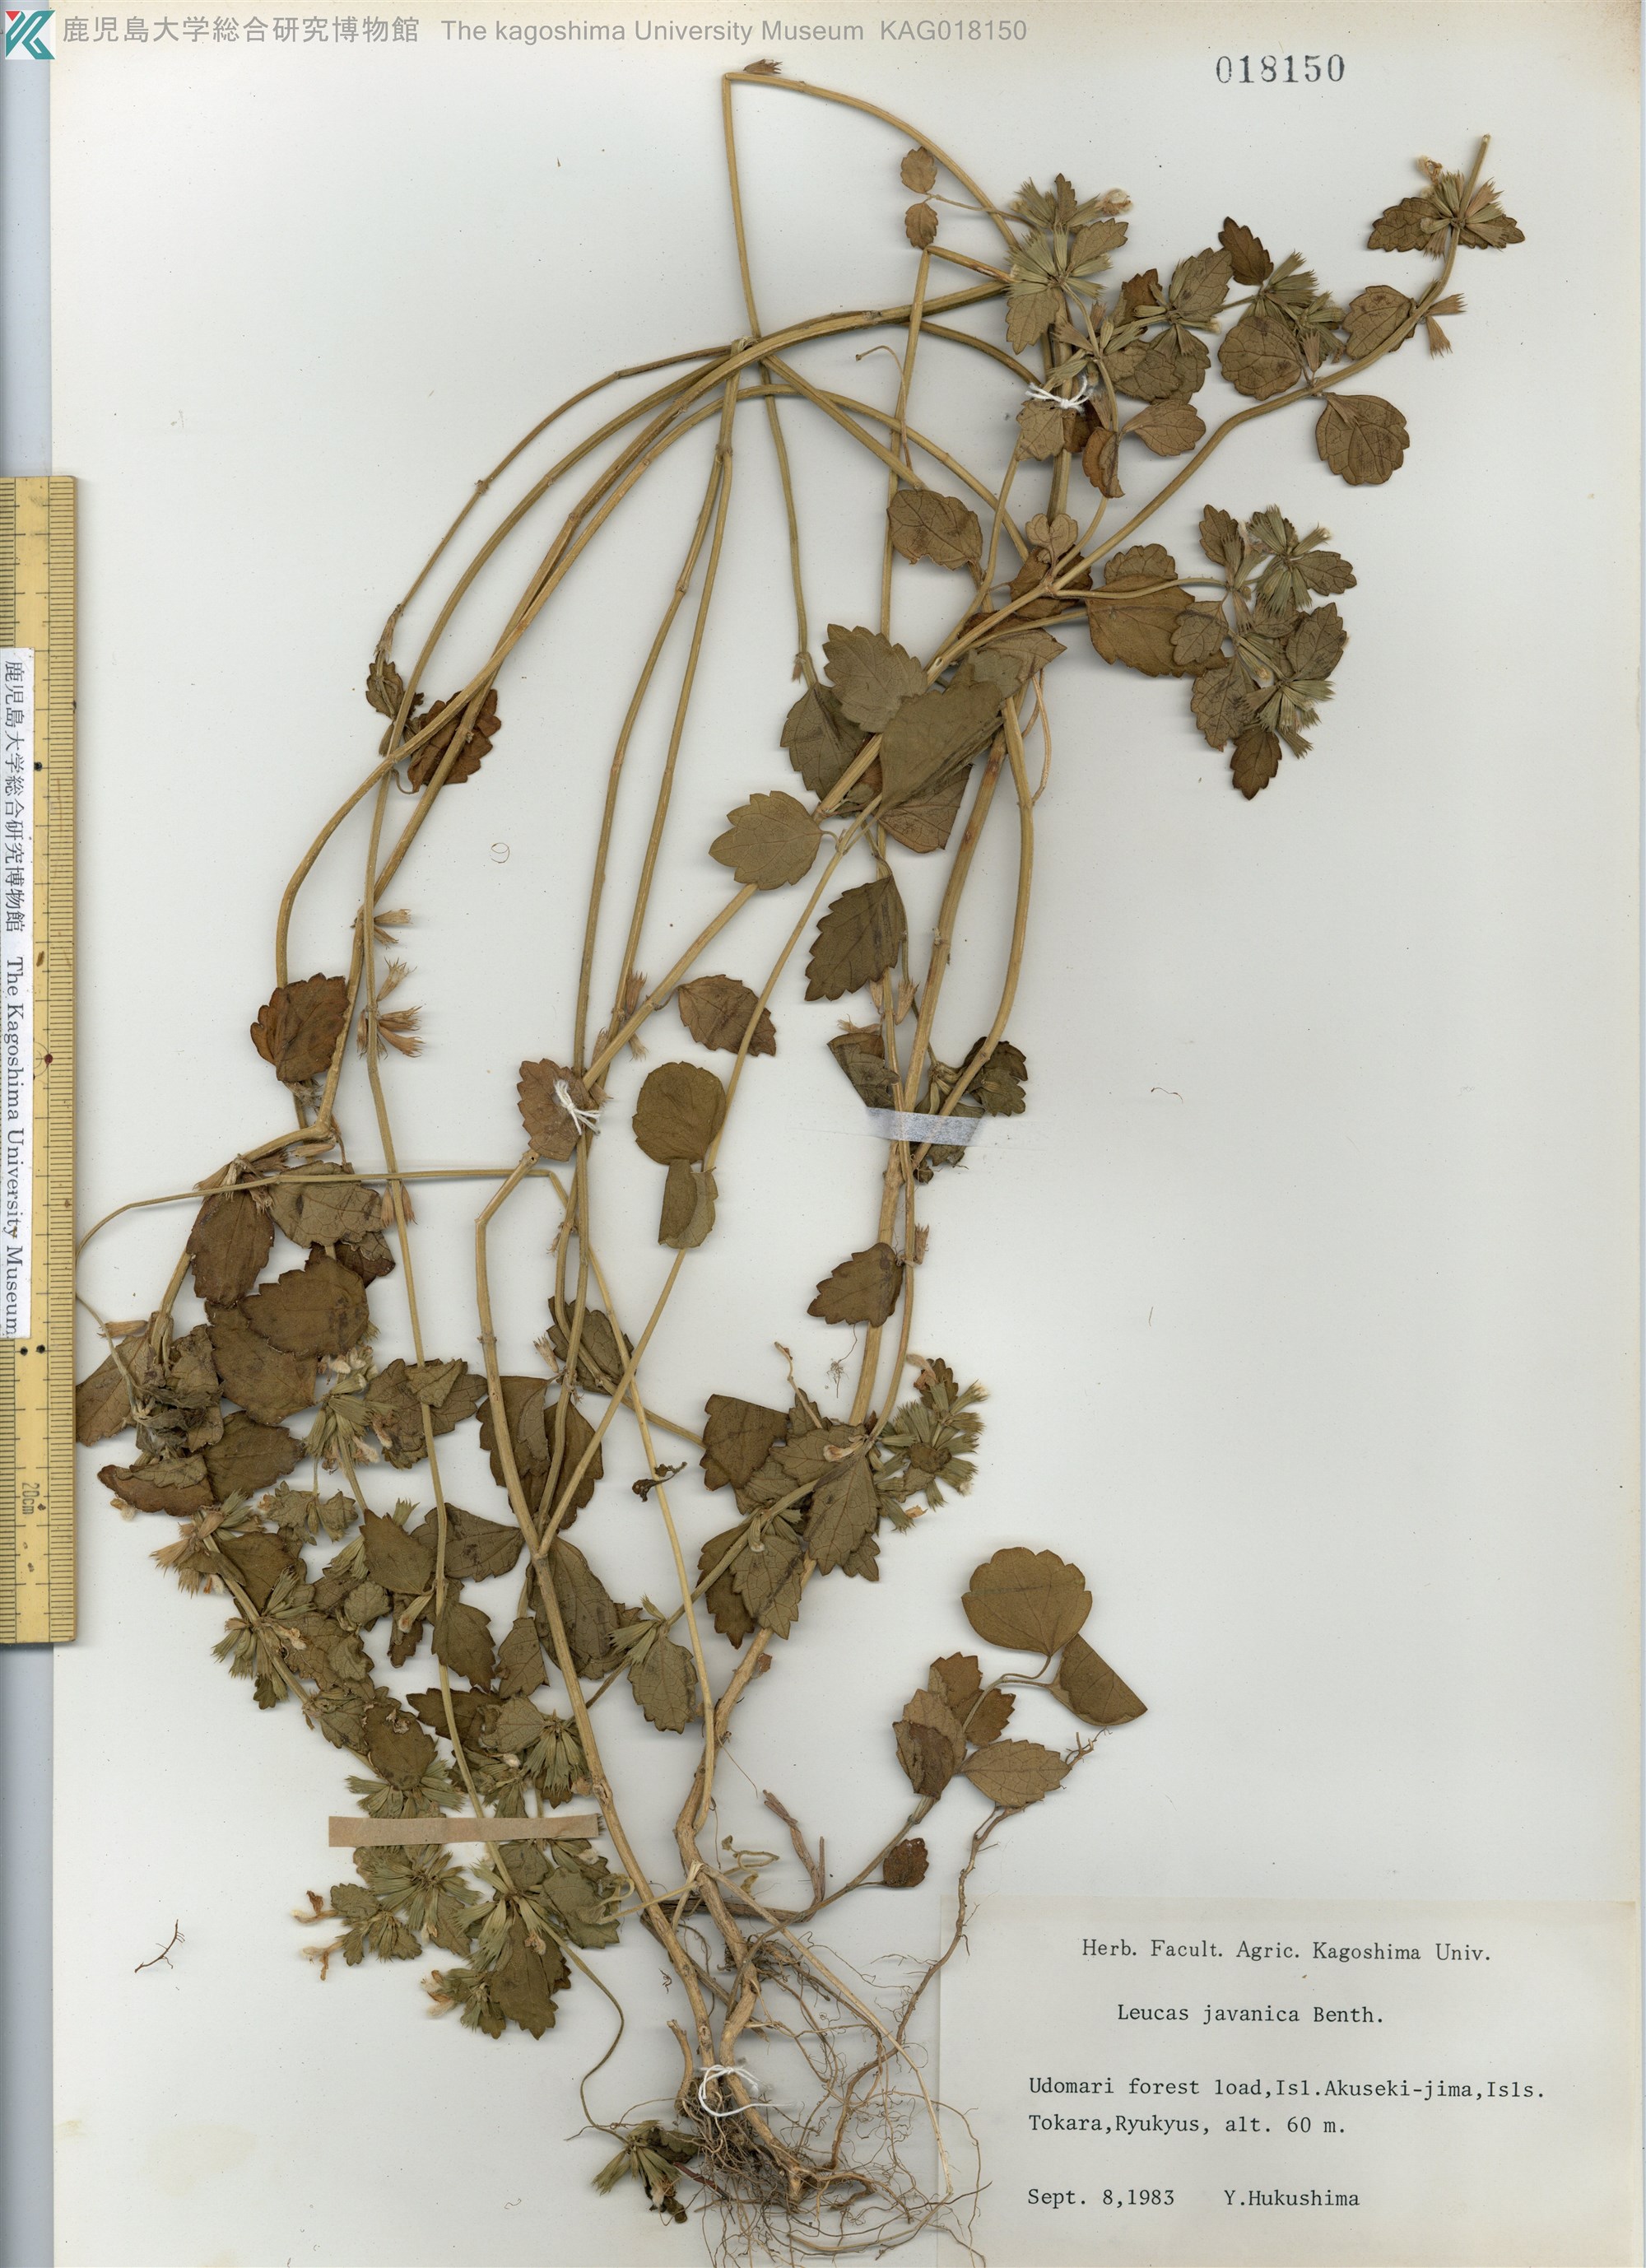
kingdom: Plantae
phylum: Tracheophyta
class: Magnoliopsida
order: Lamiales
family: Lamiaceae
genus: Leucas
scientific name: Leucas chinensis
